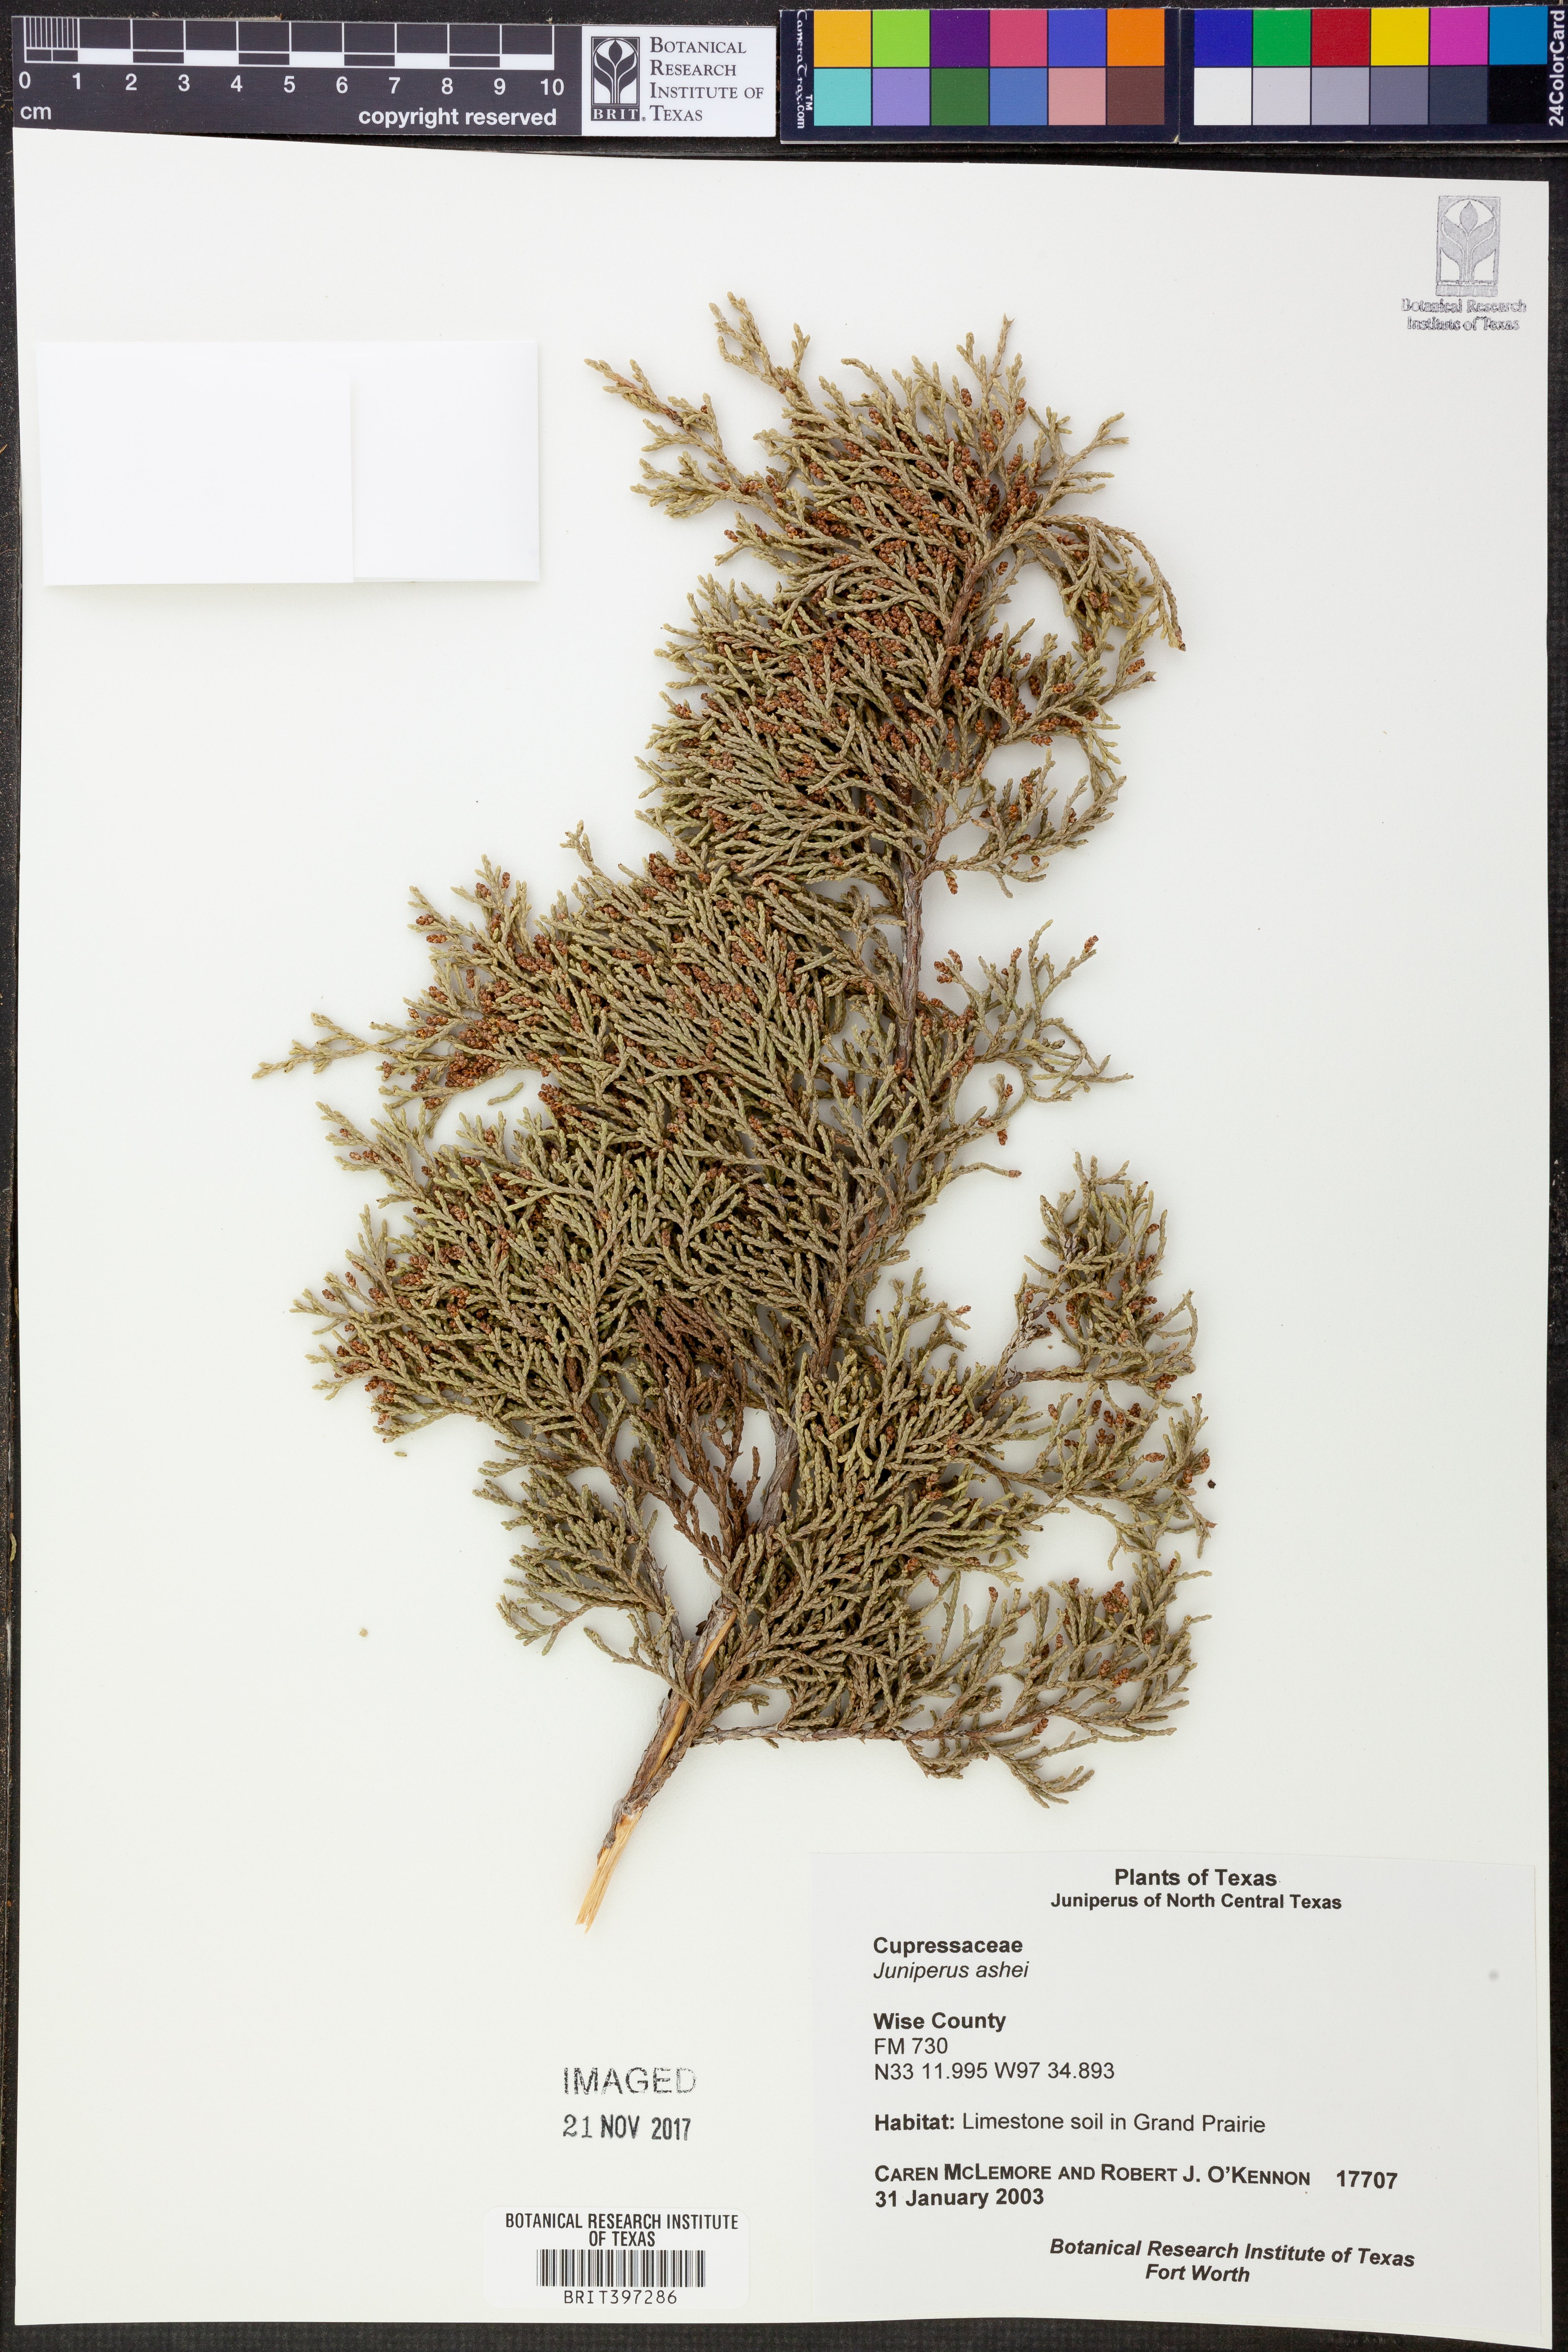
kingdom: Plantae
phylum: Tracheophyta
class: Pinopsida
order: Pinales
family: Cupressaceae
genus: Juniperus
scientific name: Juniperus ashei
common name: Mexican juniper
